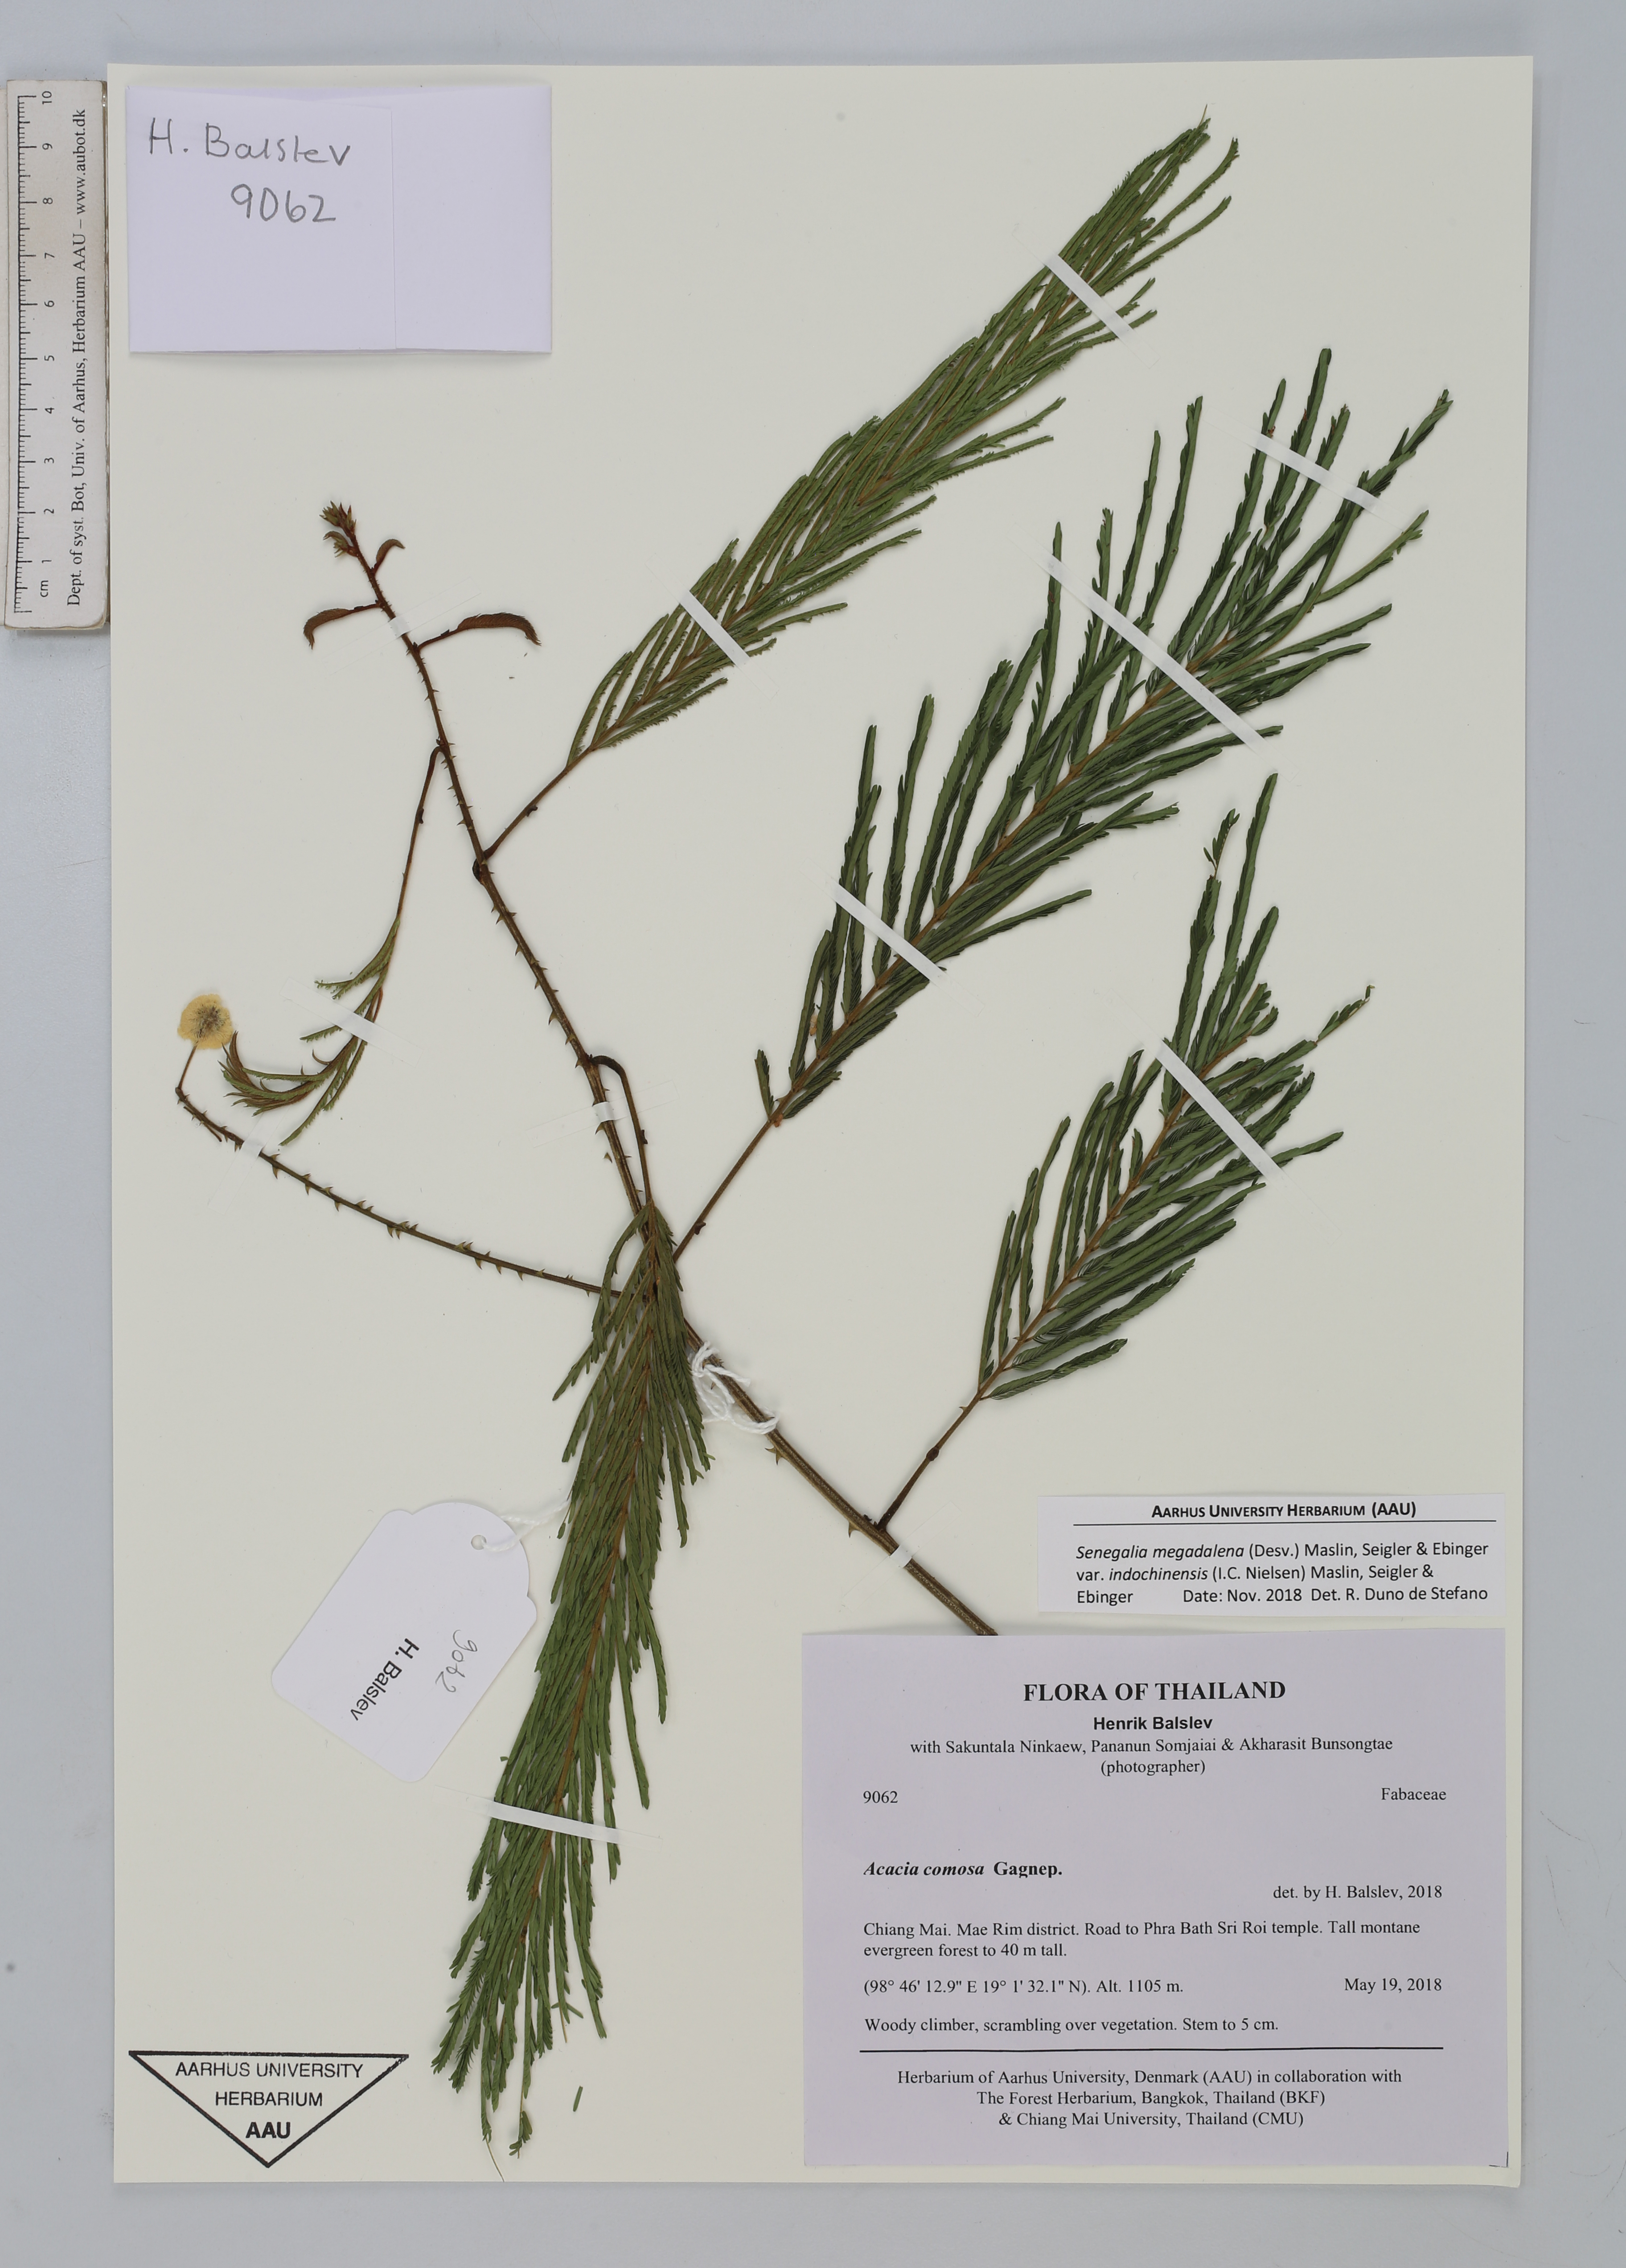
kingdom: Plantae
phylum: Tracheophyta
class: Magnoliopsida
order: Fabales
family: Fabaceae
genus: Senegalia
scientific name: Senegalia megaladena
